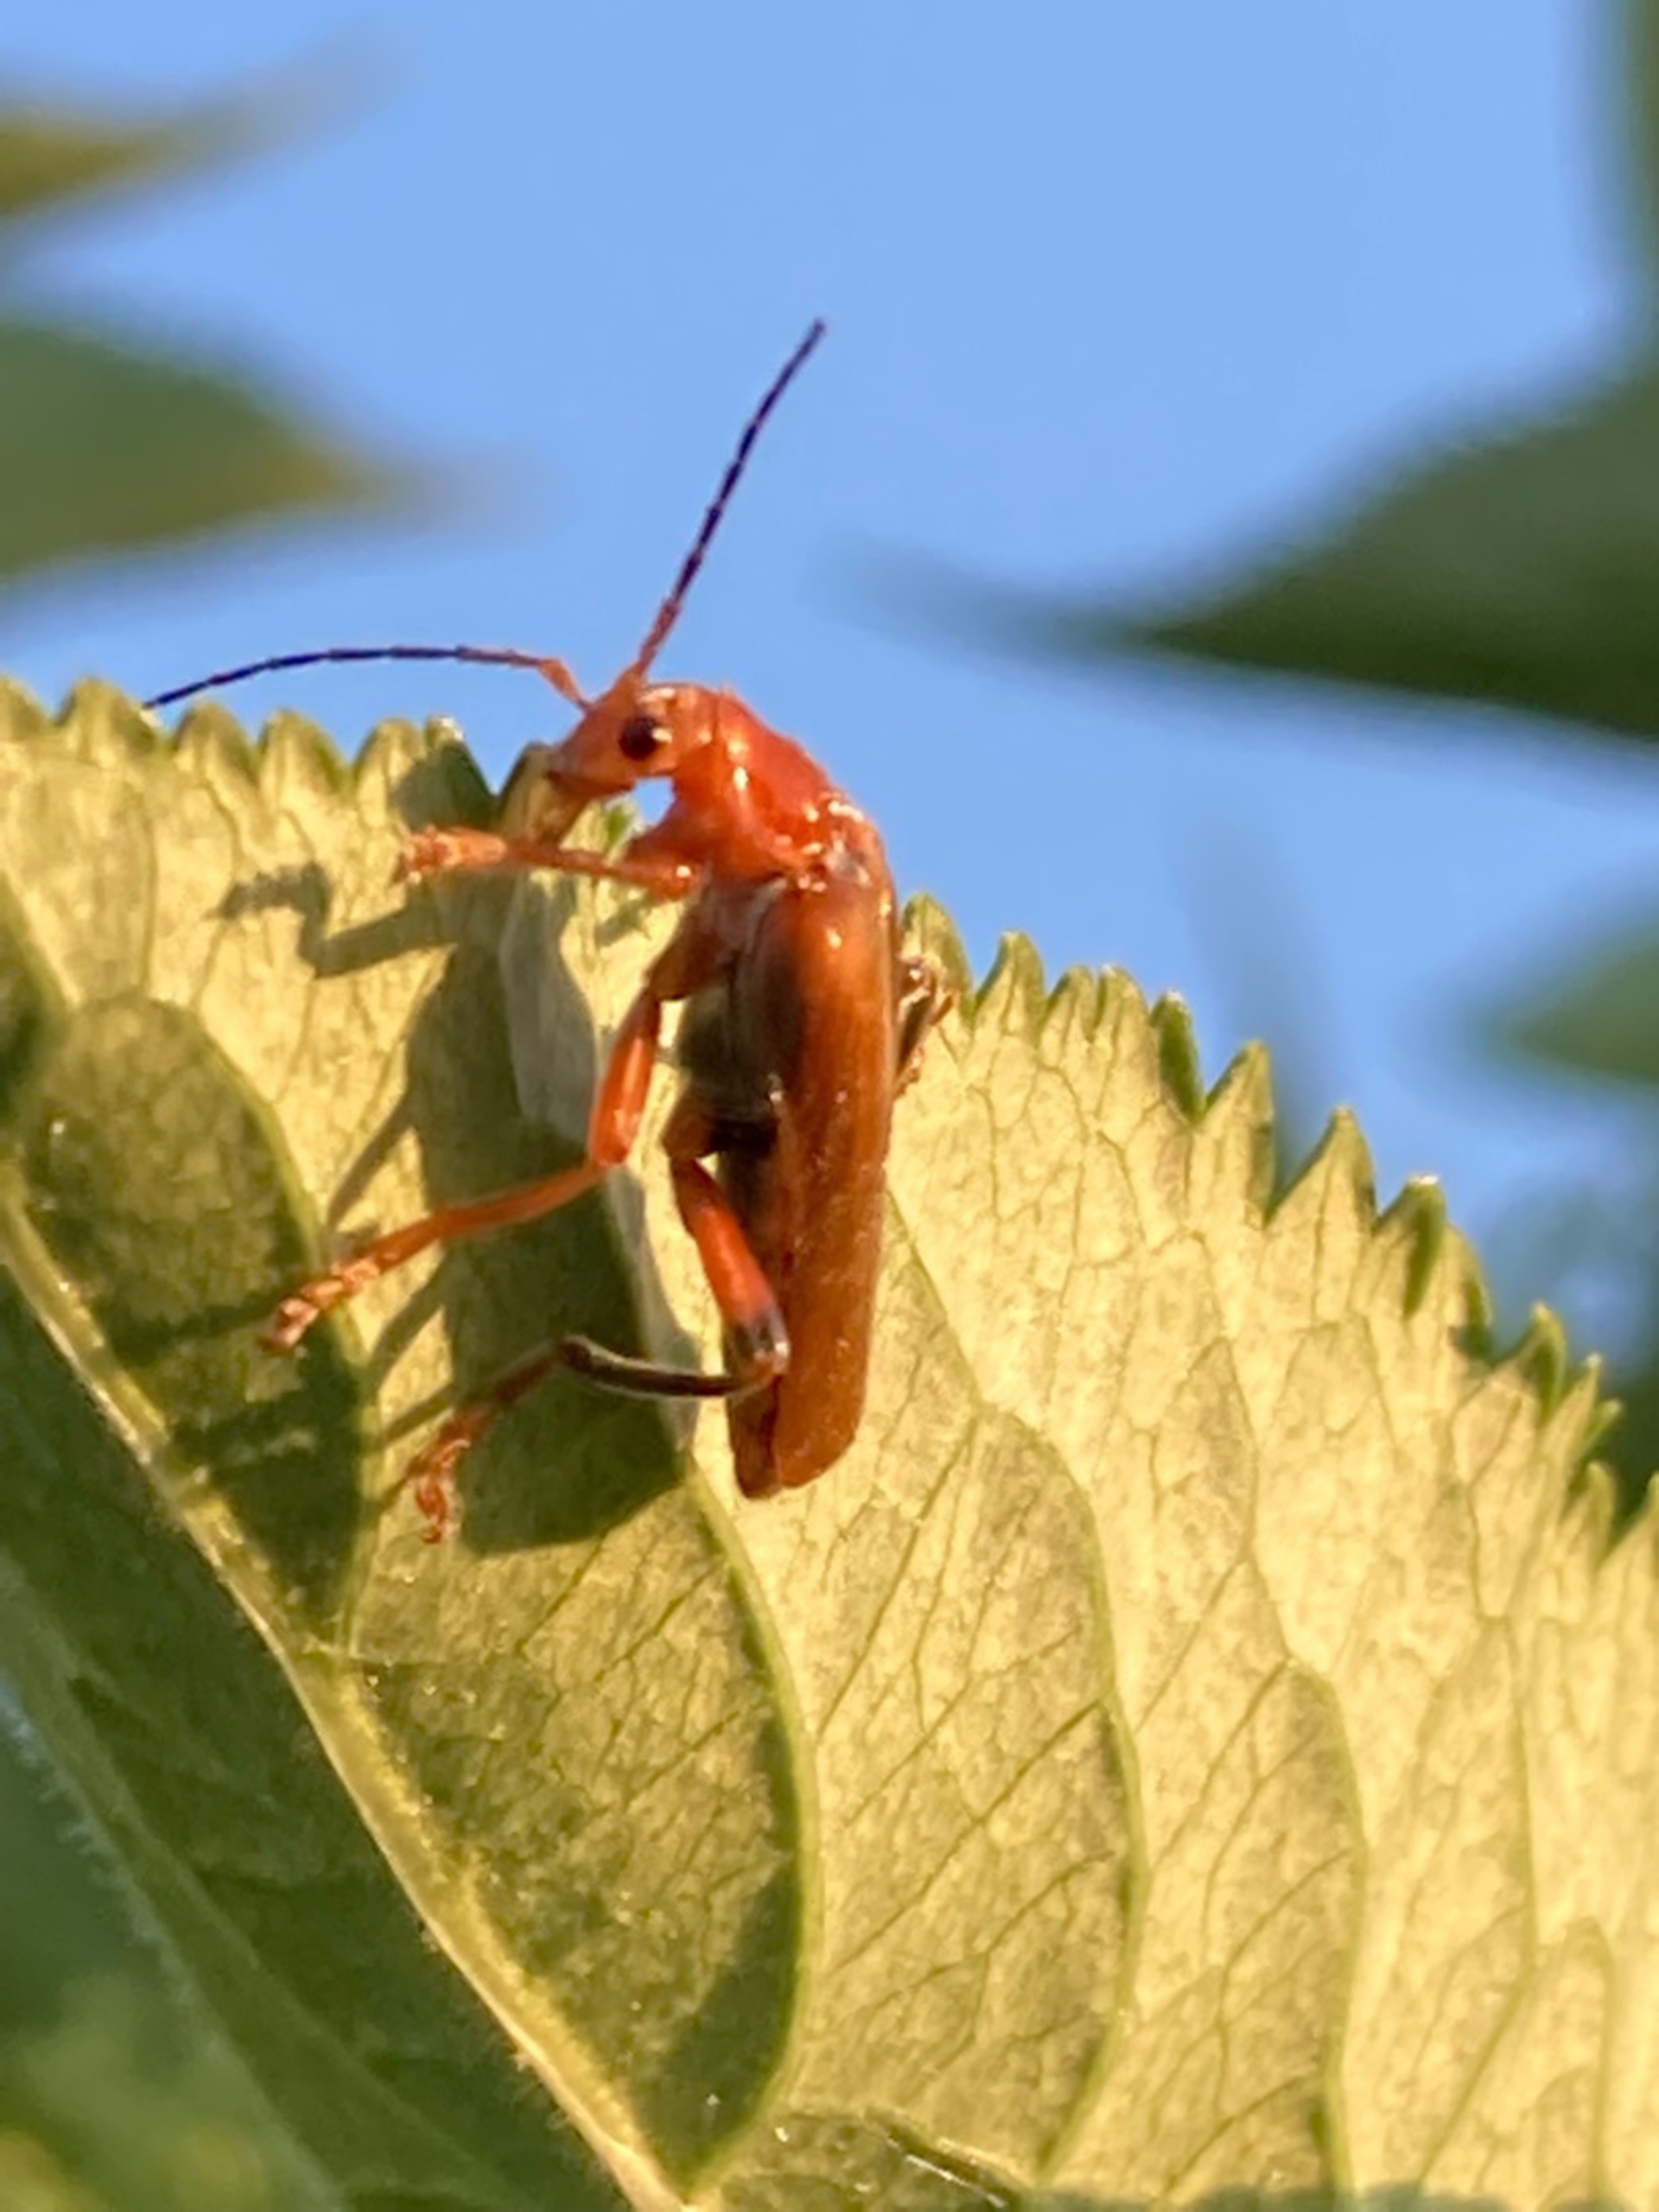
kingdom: Animalia
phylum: Arthropoda
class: Insecta
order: Coleoptera
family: Cantharidae
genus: Cantharis
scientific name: Cantharis livida
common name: Gul blødvinge
